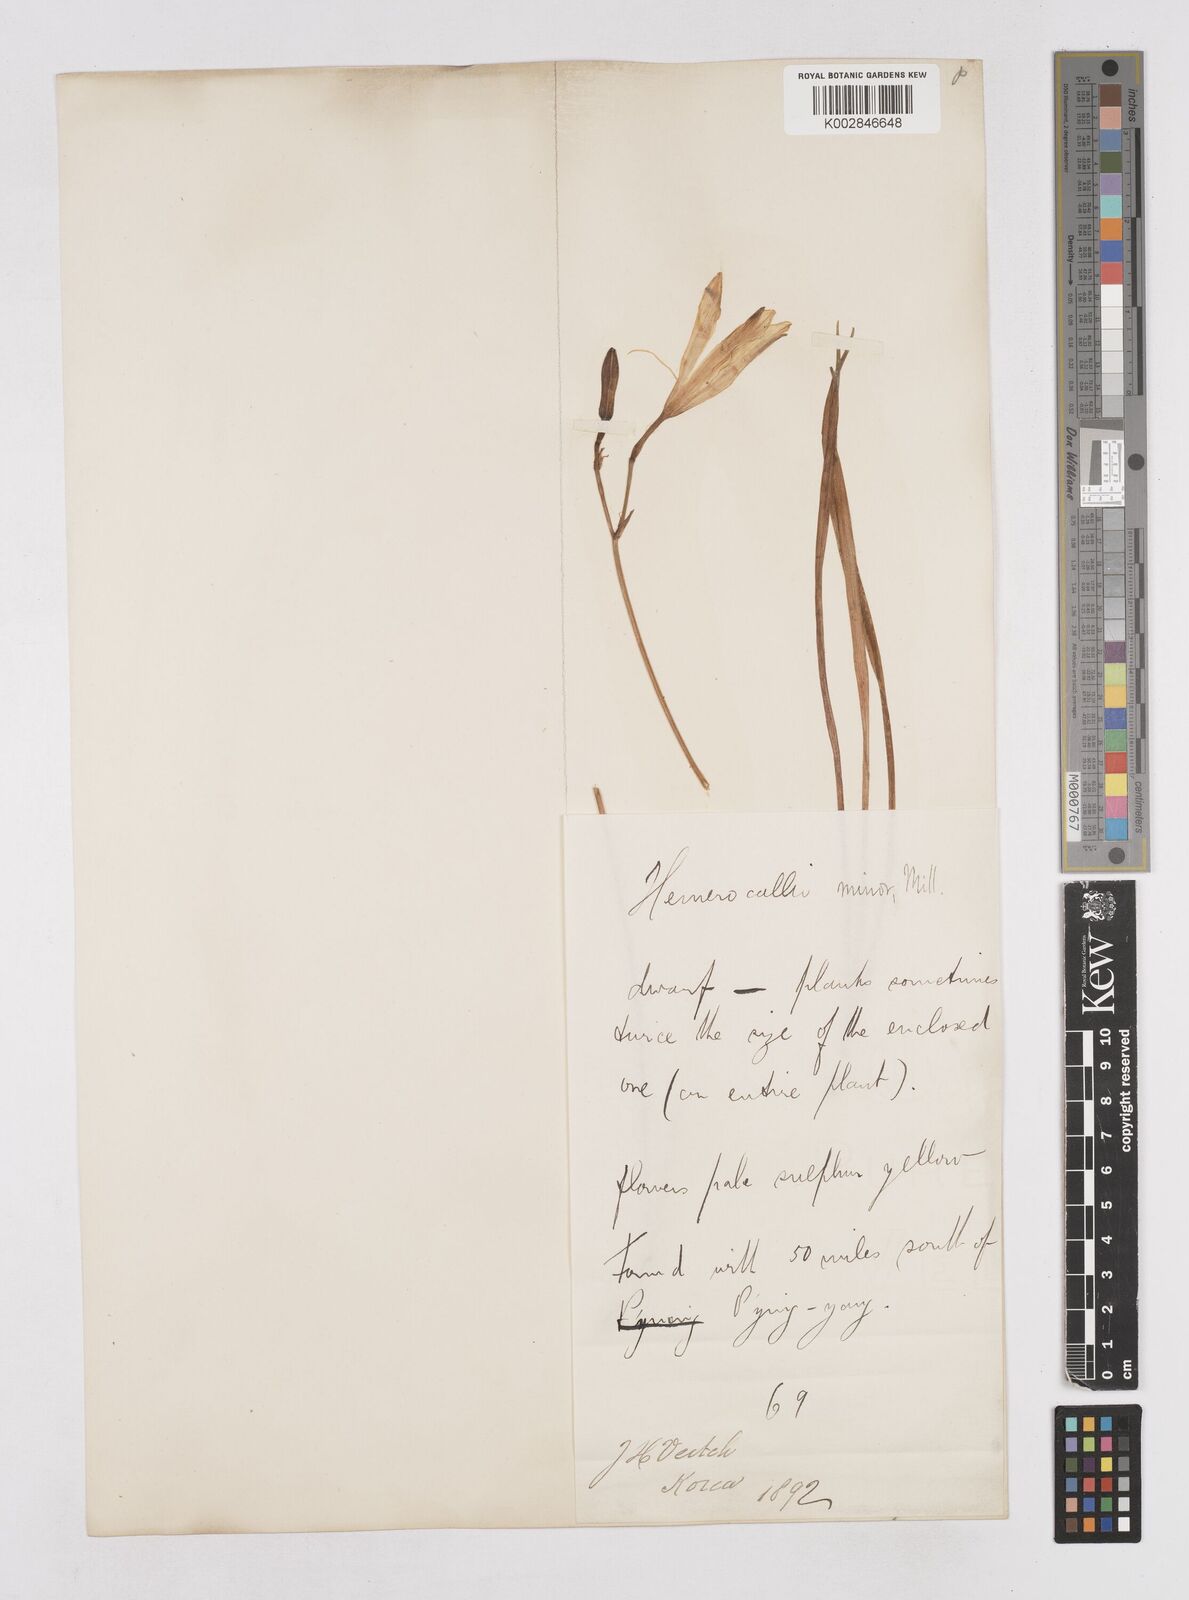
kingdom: Plantae
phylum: Tracheophyta
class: Liliopsida
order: Asparagales
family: Asphodelaceae
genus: Hemerocallis
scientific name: Hemerocallis minor
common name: Small daylily
